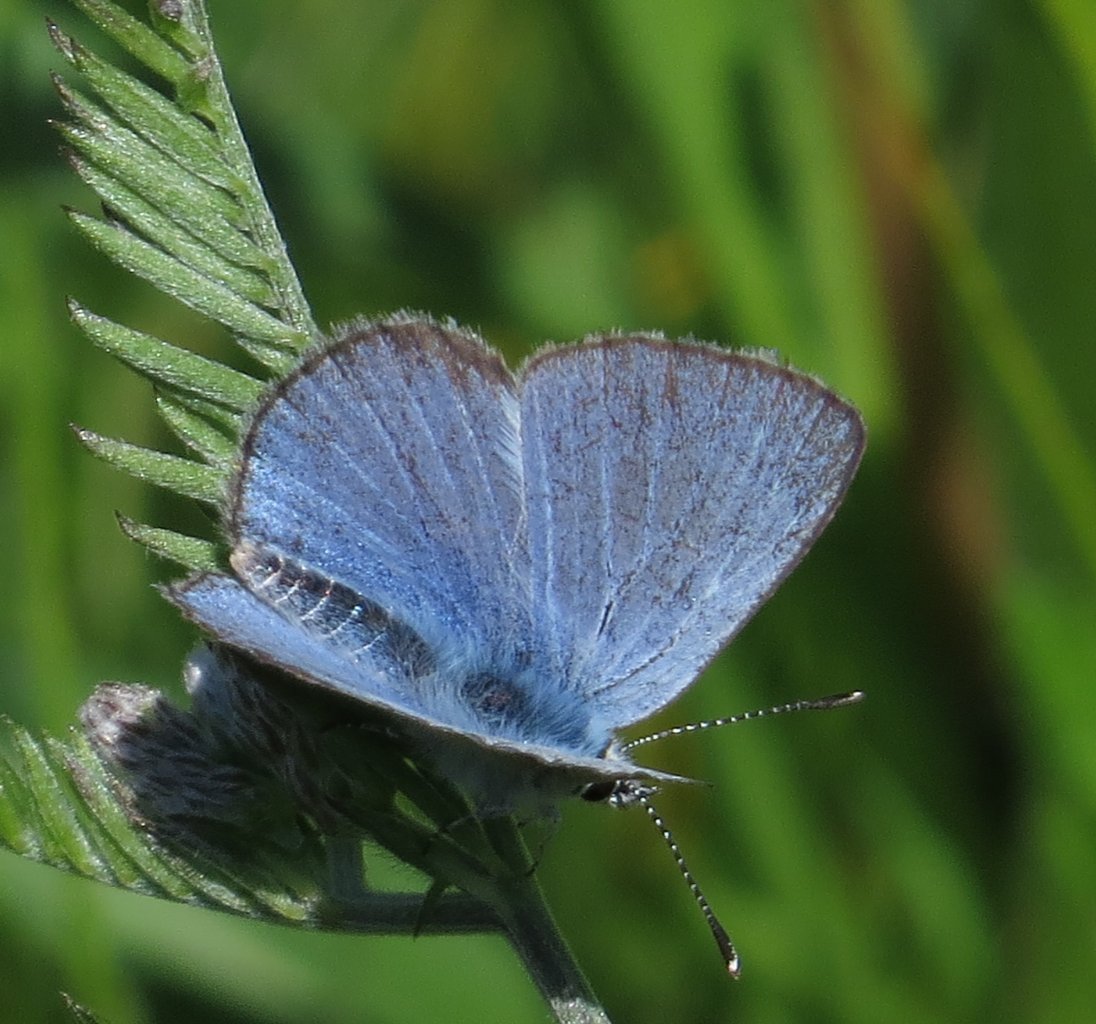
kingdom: Animalia
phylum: Arthropoda
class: Insecta
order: Lepidoptera
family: Lycaenidae
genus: Glaucopsyche
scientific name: Glaucopsyche lygdamus
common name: Silvery Blue
